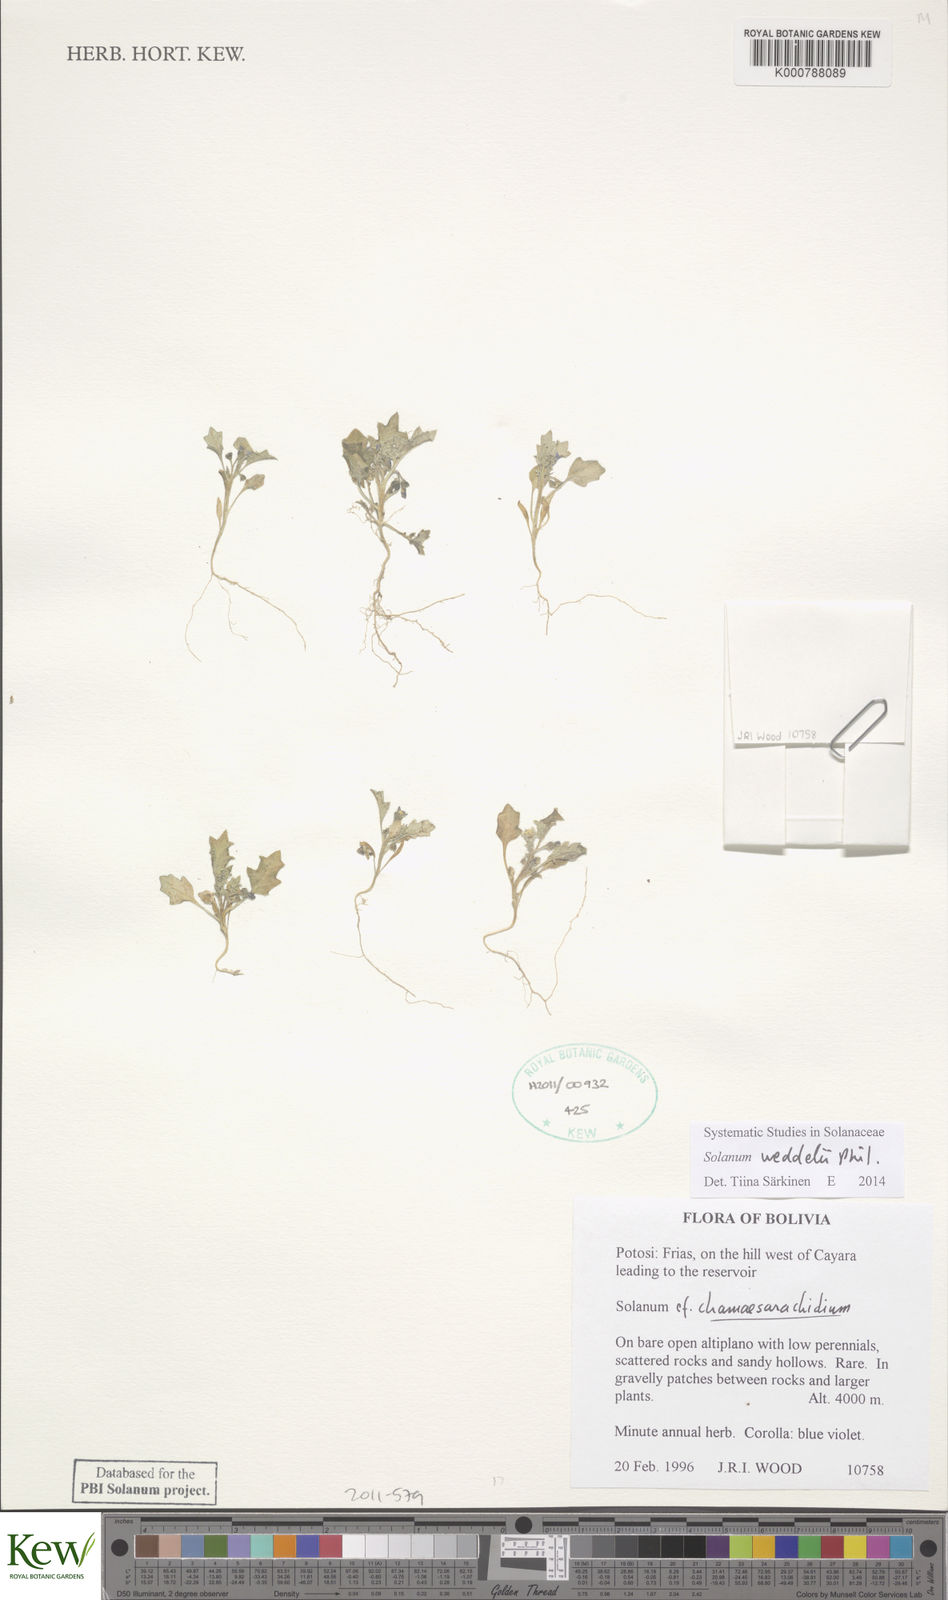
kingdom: Plantae
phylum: Tracheophyta
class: Magnoliopsida
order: Solanales
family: Solanaceae
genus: Solanum
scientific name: Solanum weddellii
